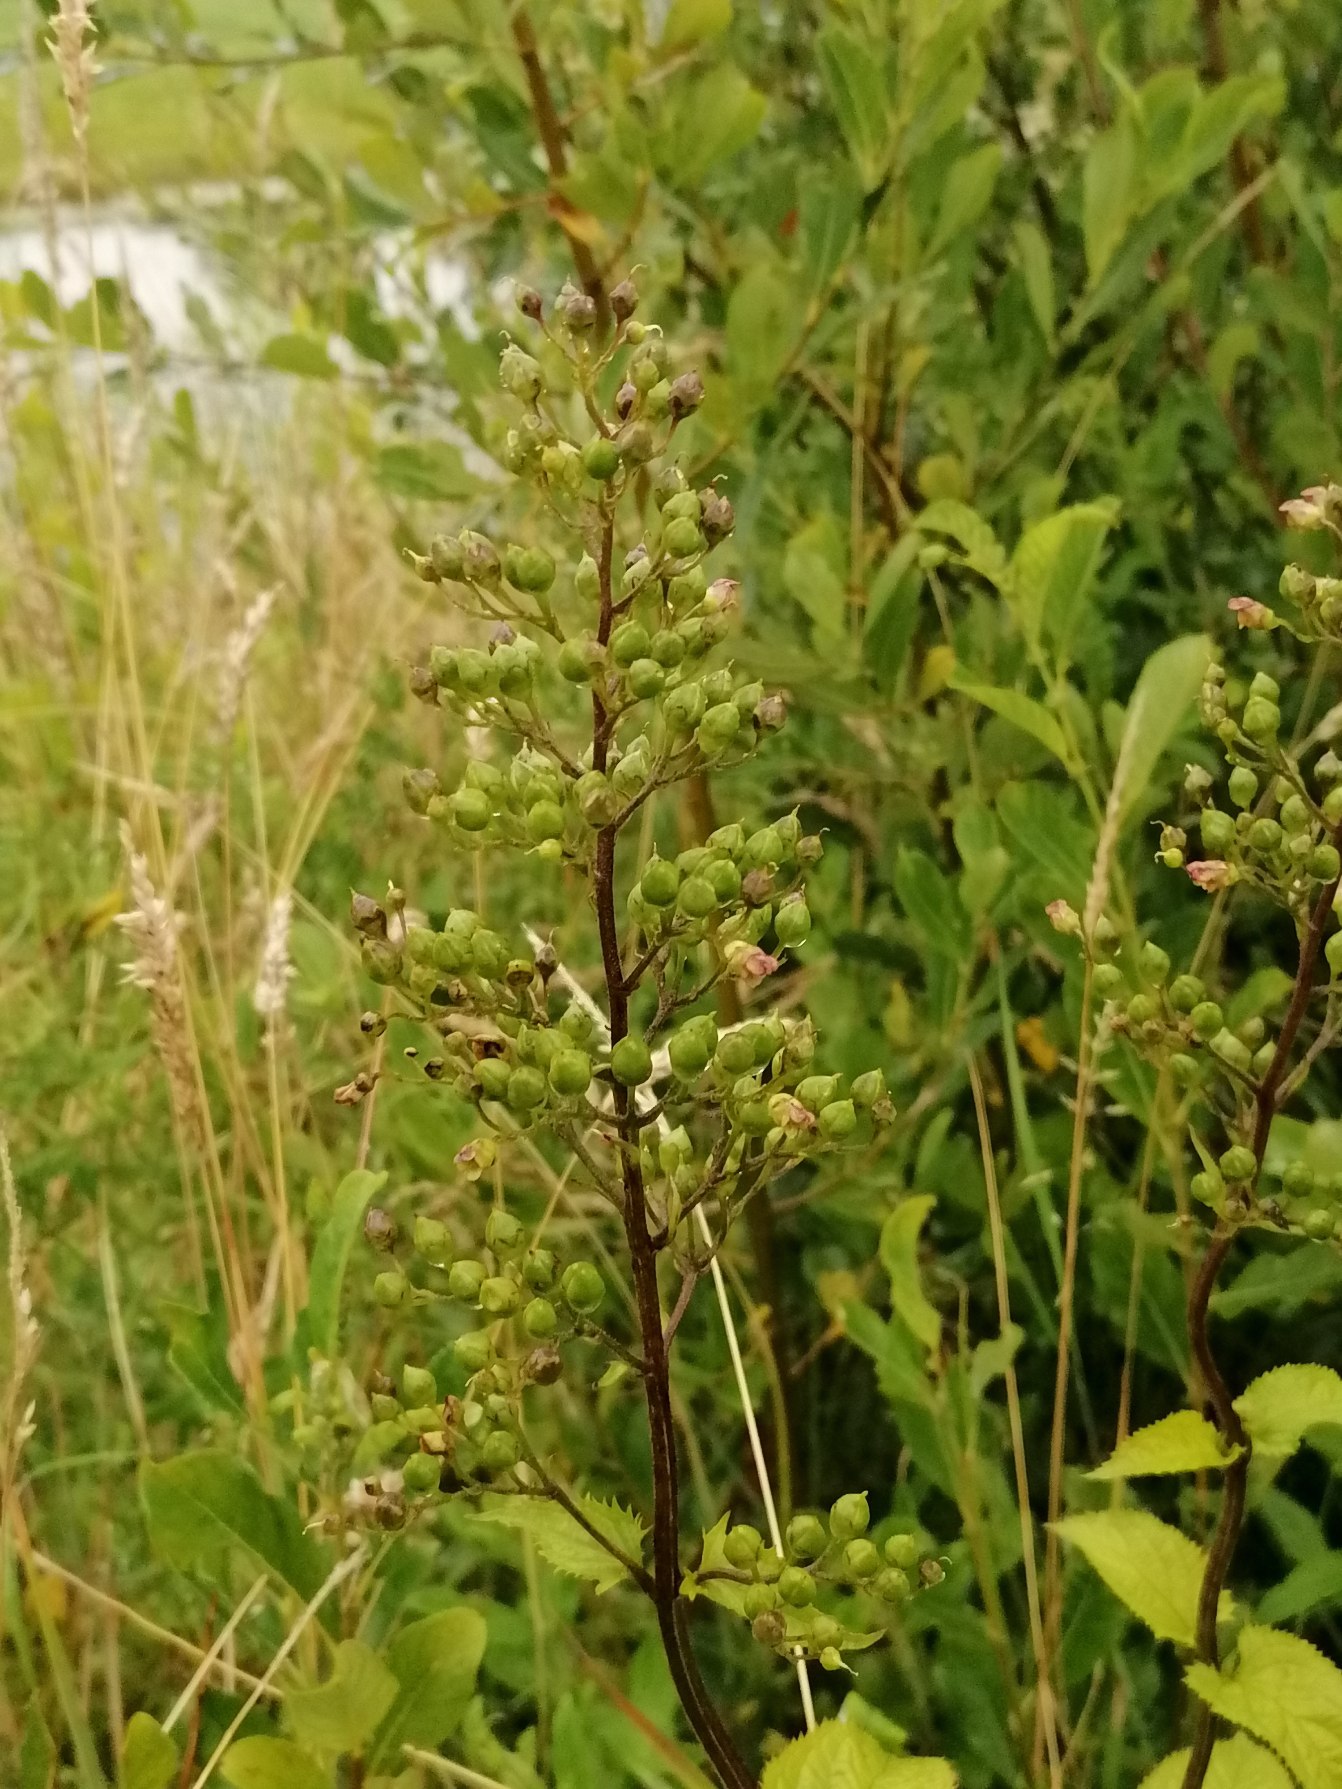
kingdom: Plantae
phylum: Tracheophyta
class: Magnoliopsida
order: Lamiales
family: Scrophulariaceae
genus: Scrophularia
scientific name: Scrophularia nodosa
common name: Knoldet brunrod
